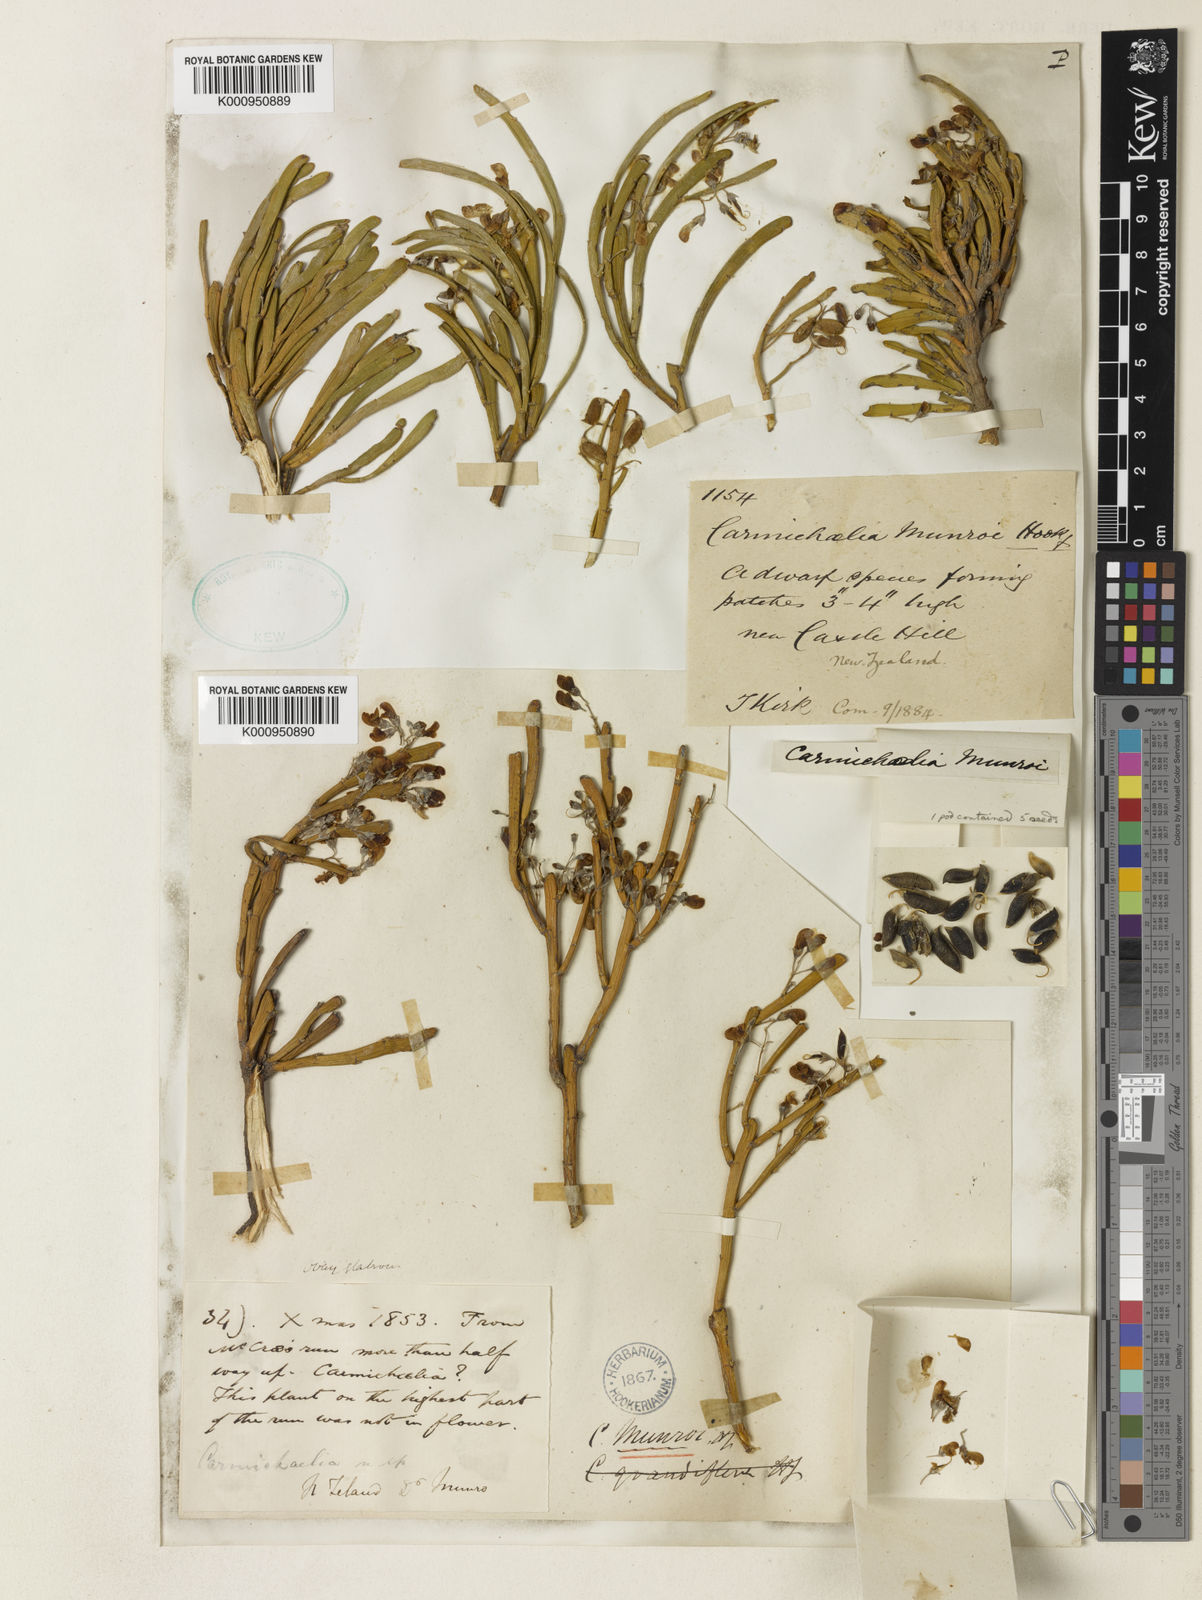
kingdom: Plantae
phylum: Tracheophyta
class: Magnoliopsida
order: Fabales
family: Fabaceae
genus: Carmichaelia
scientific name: Carmichaelia
